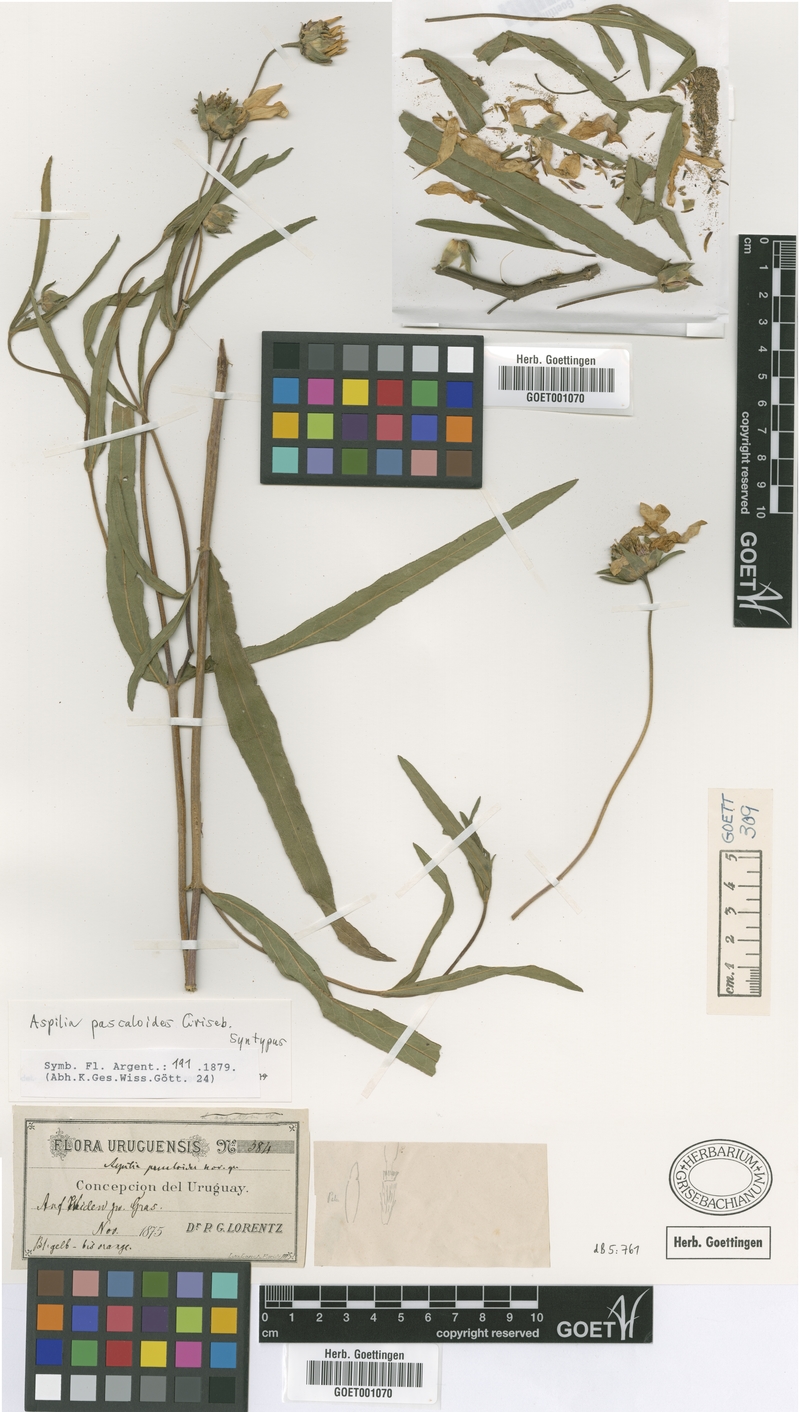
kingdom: Plantae
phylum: Tracheophyta
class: Magnoliopsida
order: Asterales
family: Asteraceae
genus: Wedelia
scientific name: Wedelia pascalioides
